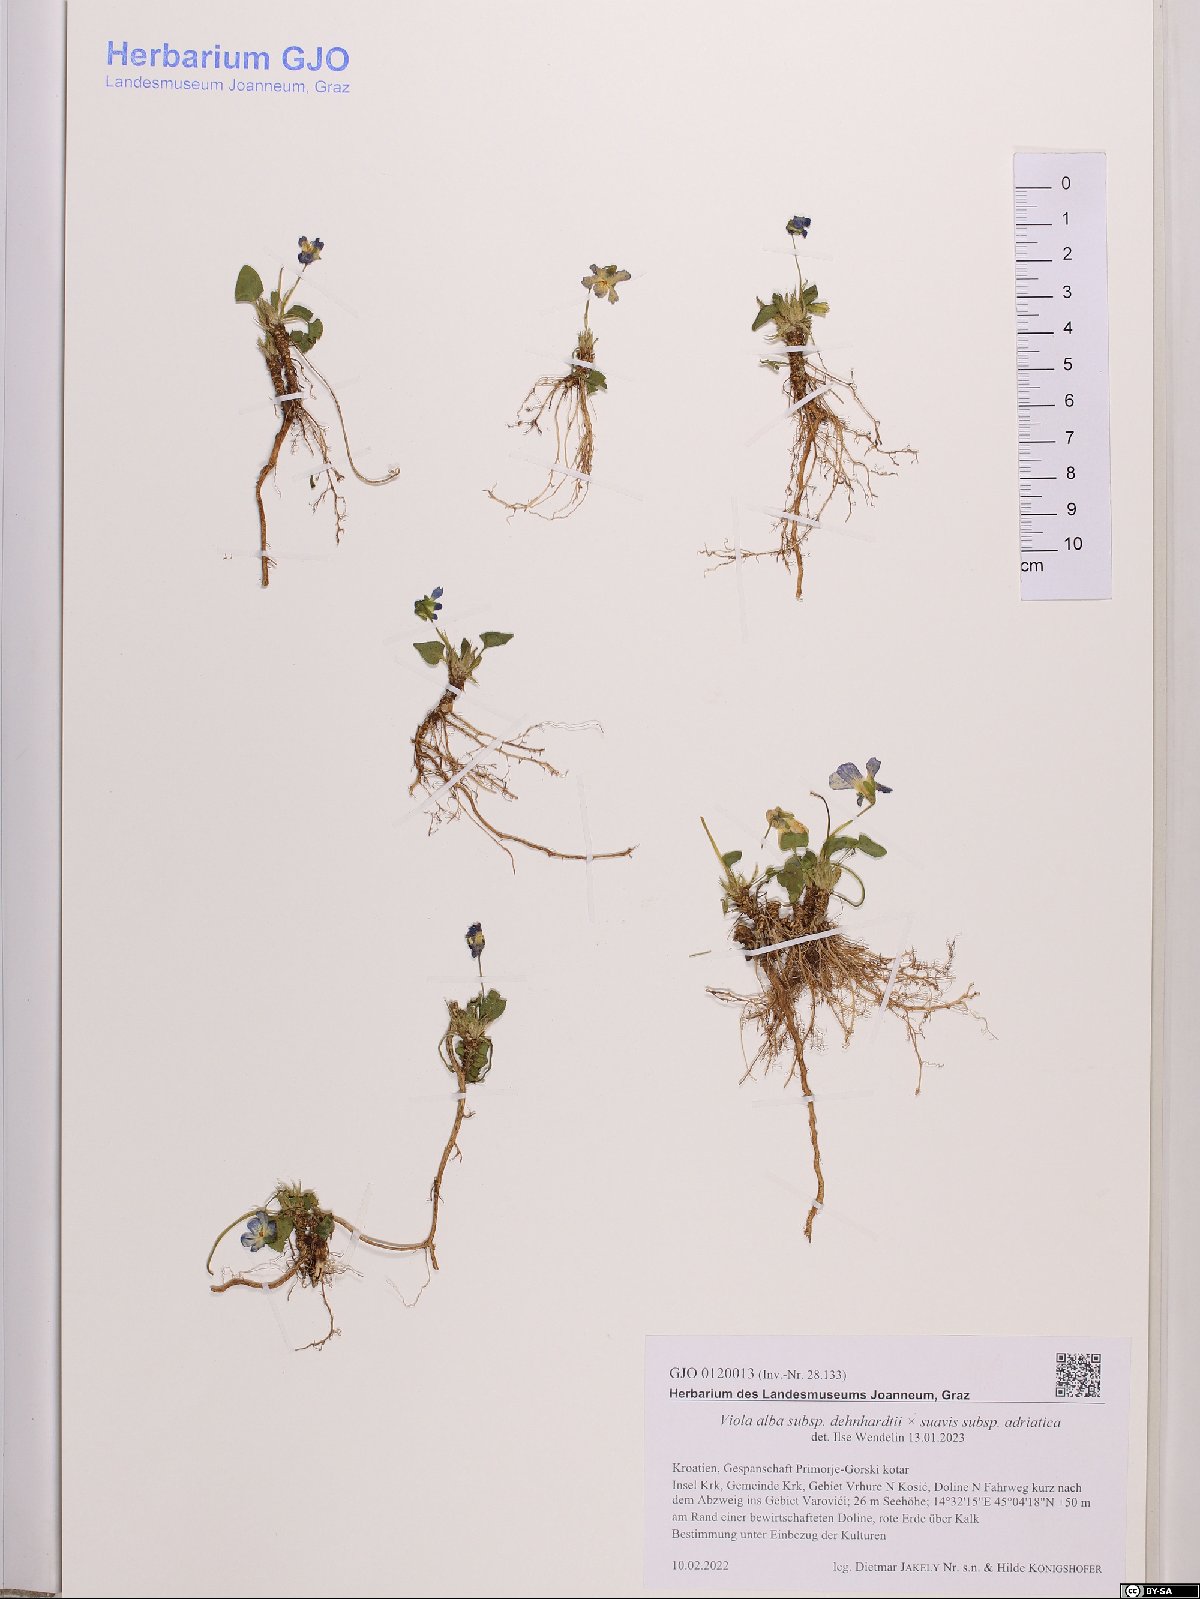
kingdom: Plantae
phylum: Tracheophyta
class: Magnoliopsida
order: Malpighiales
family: Violaceae
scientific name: Violaceae
